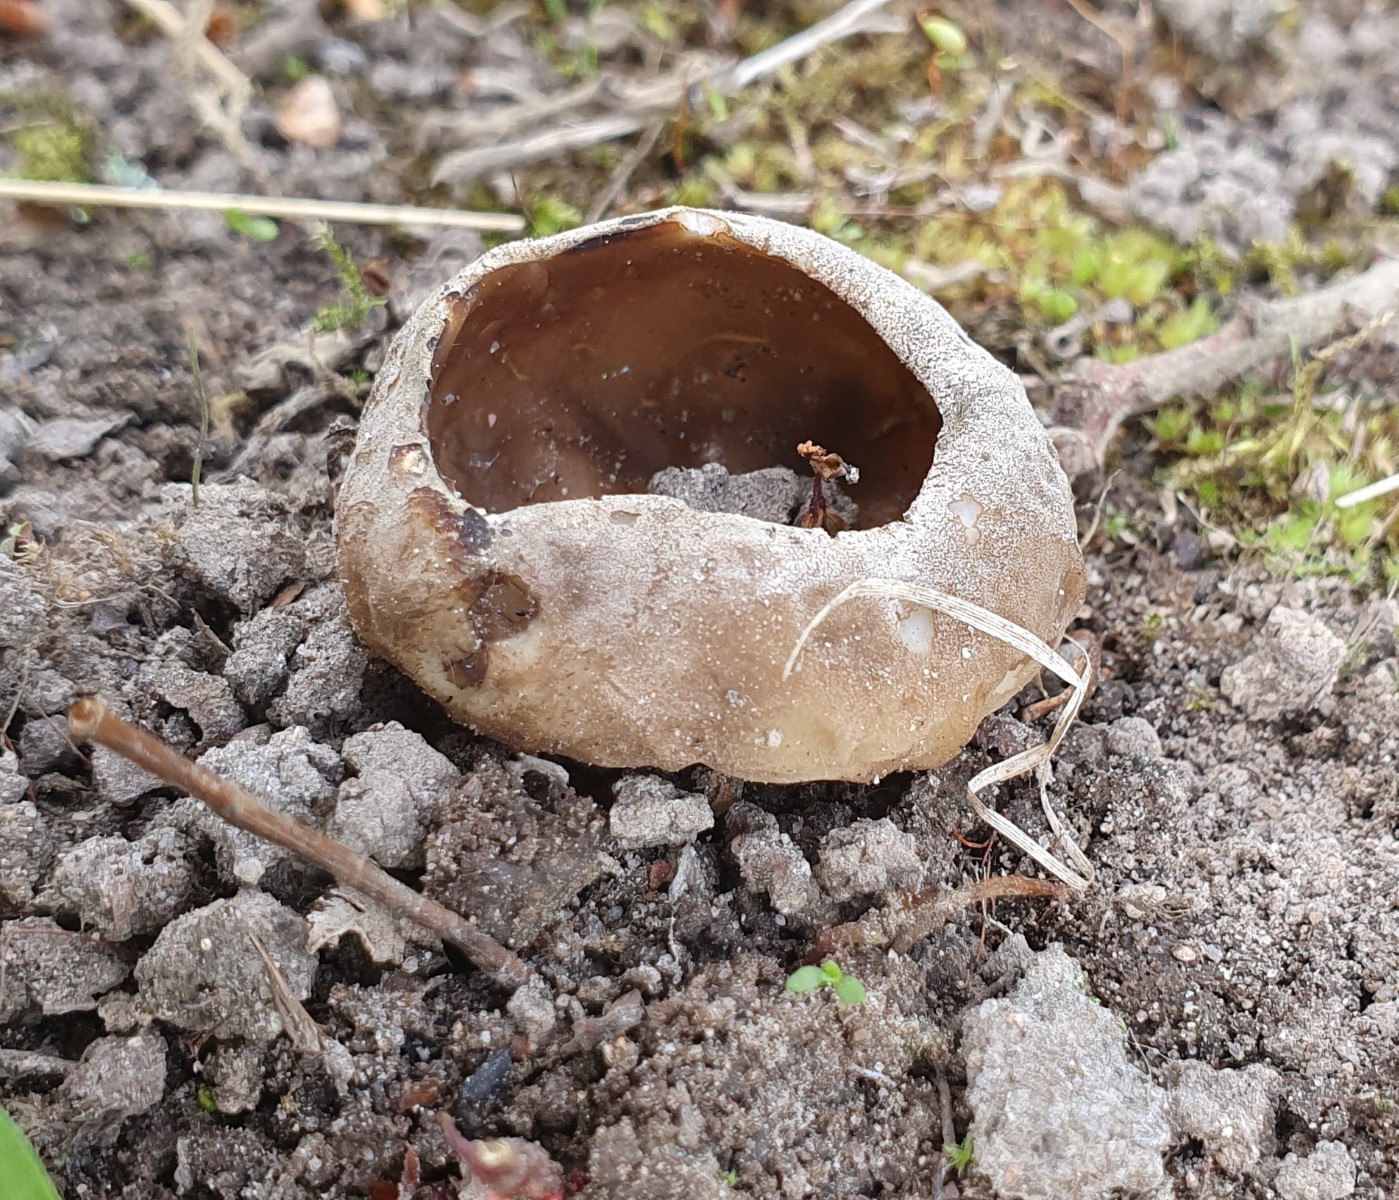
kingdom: Fungi
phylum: Ascomycota
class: Pezizomycetes
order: Pezizales
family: Helvellaceae
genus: Helvella
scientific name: Helvella acetabulum
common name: pokal-foldhat
